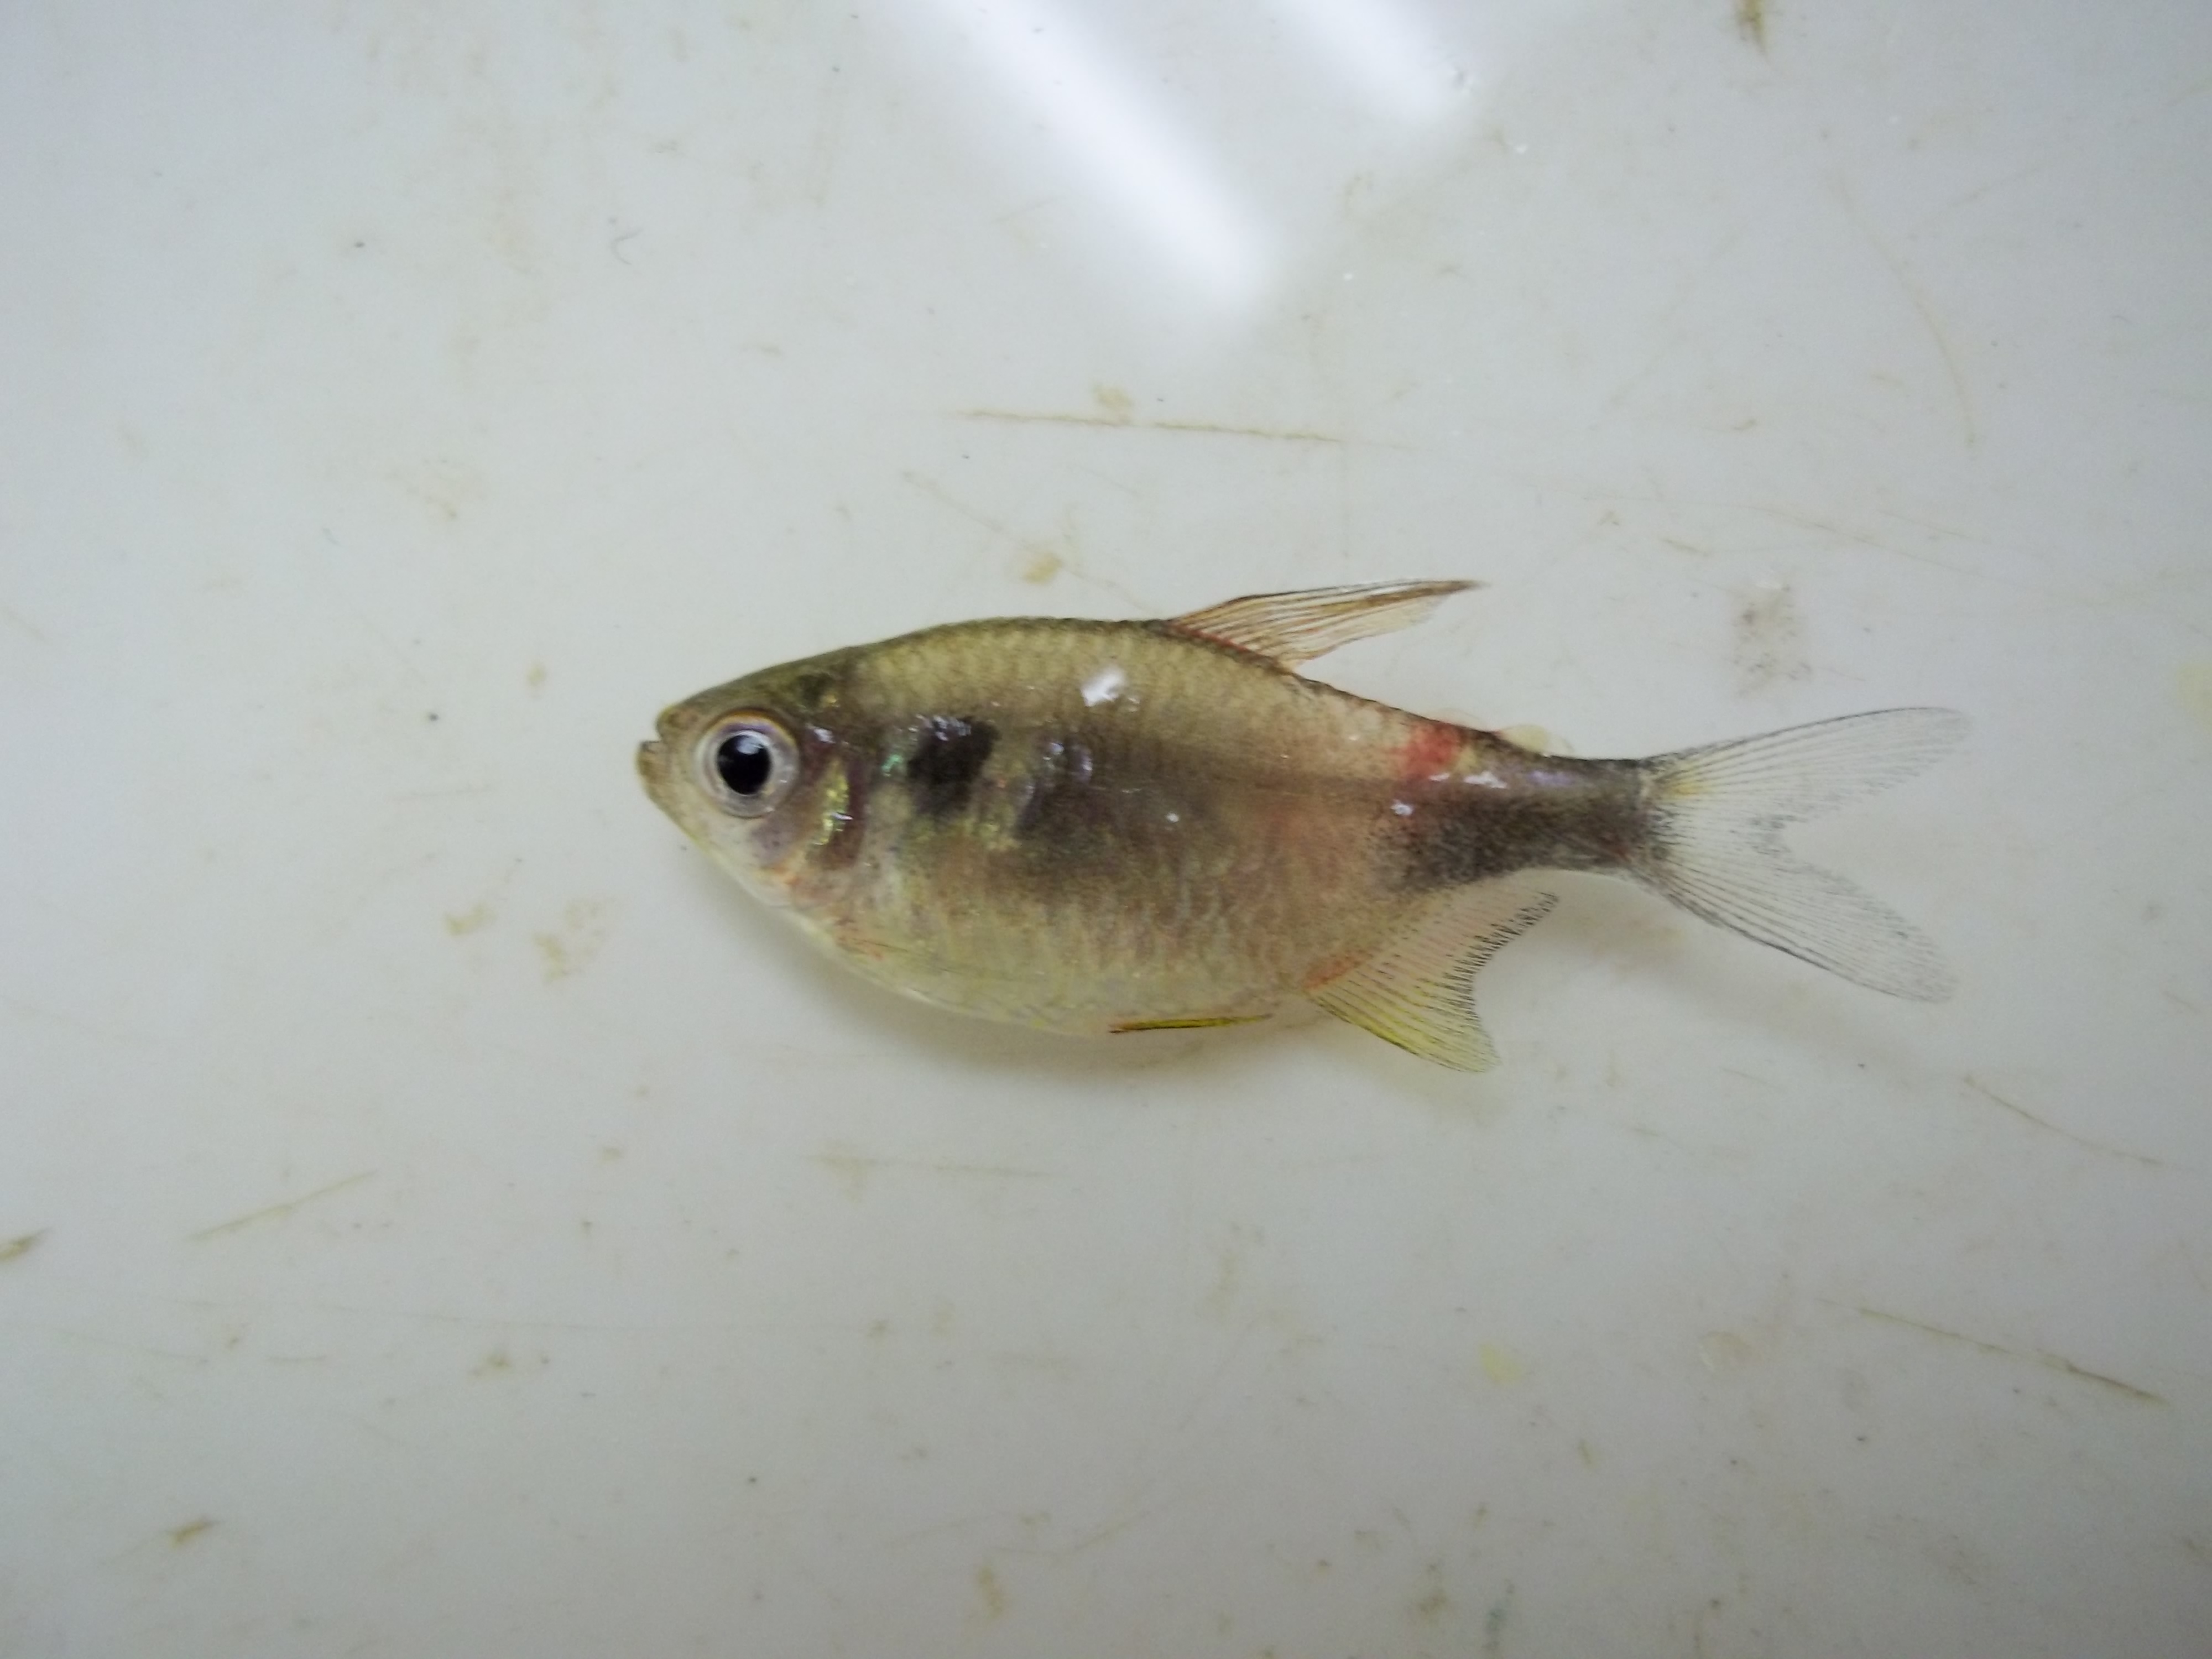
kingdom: Animalia
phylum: Chordata
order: Characiformes
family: Characidae
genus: Hemigrammus
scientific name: Hemigrammus pulcher
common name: Black wedge tetra
